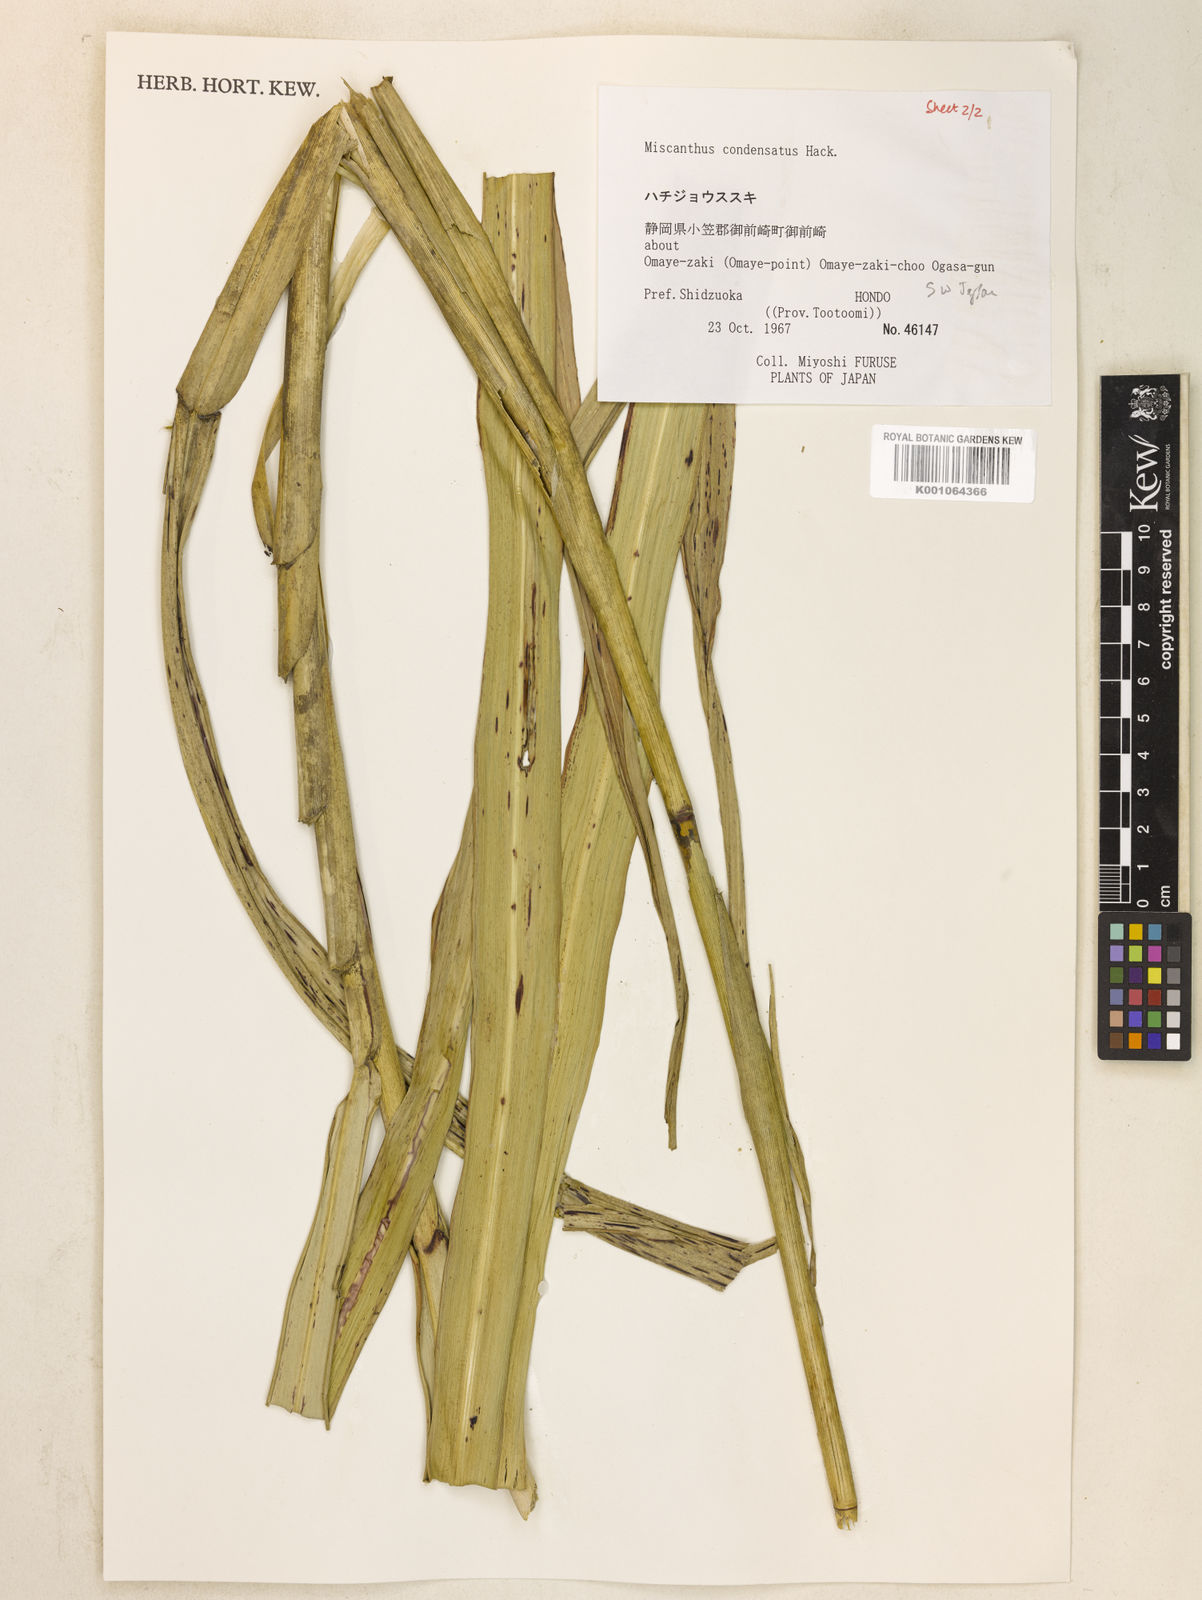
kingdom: Plantae
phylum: Tracheophyta
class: Liliopsida
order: Poales
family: Poaceae
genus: Miscanthus
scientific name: Miscanthus sinensis
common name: Chinese silvergrass
